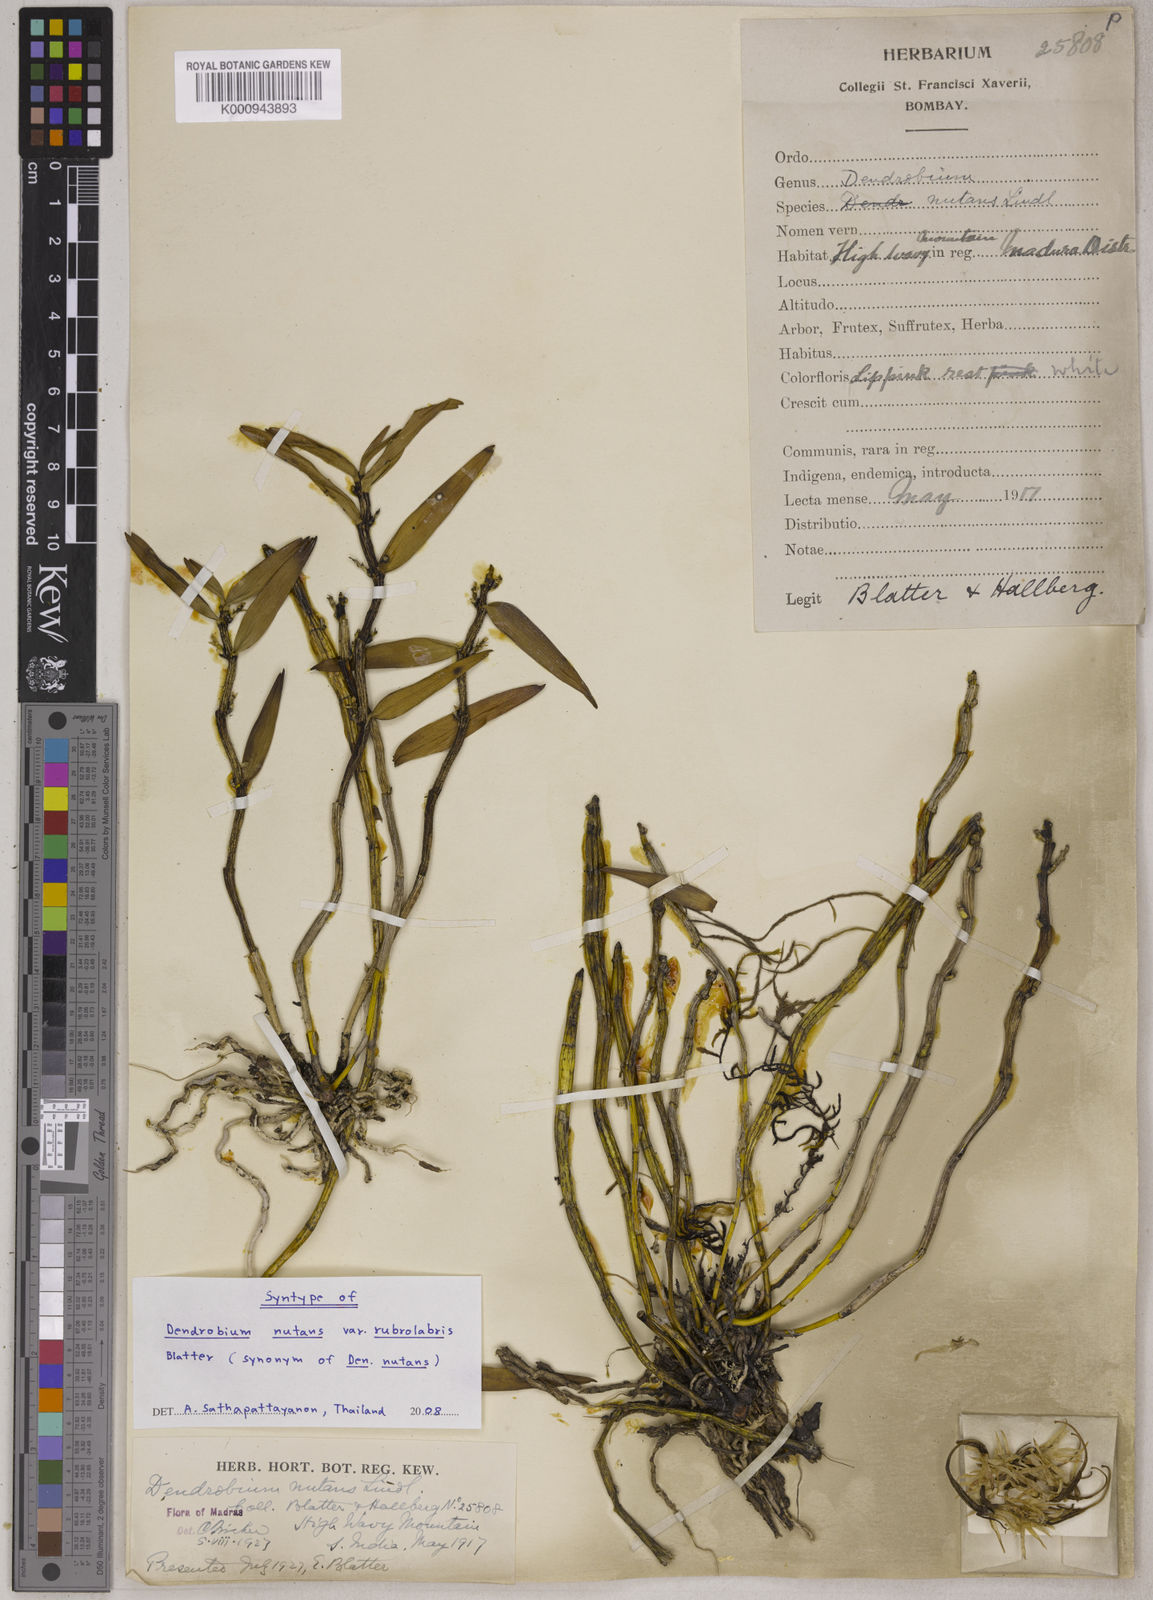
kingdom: Plantae
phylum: Tracheophyta
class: Liliopsida
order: Asparagales
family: Orchidaceae
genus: Dendrobium
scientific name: Dendrobium jerdonianum
